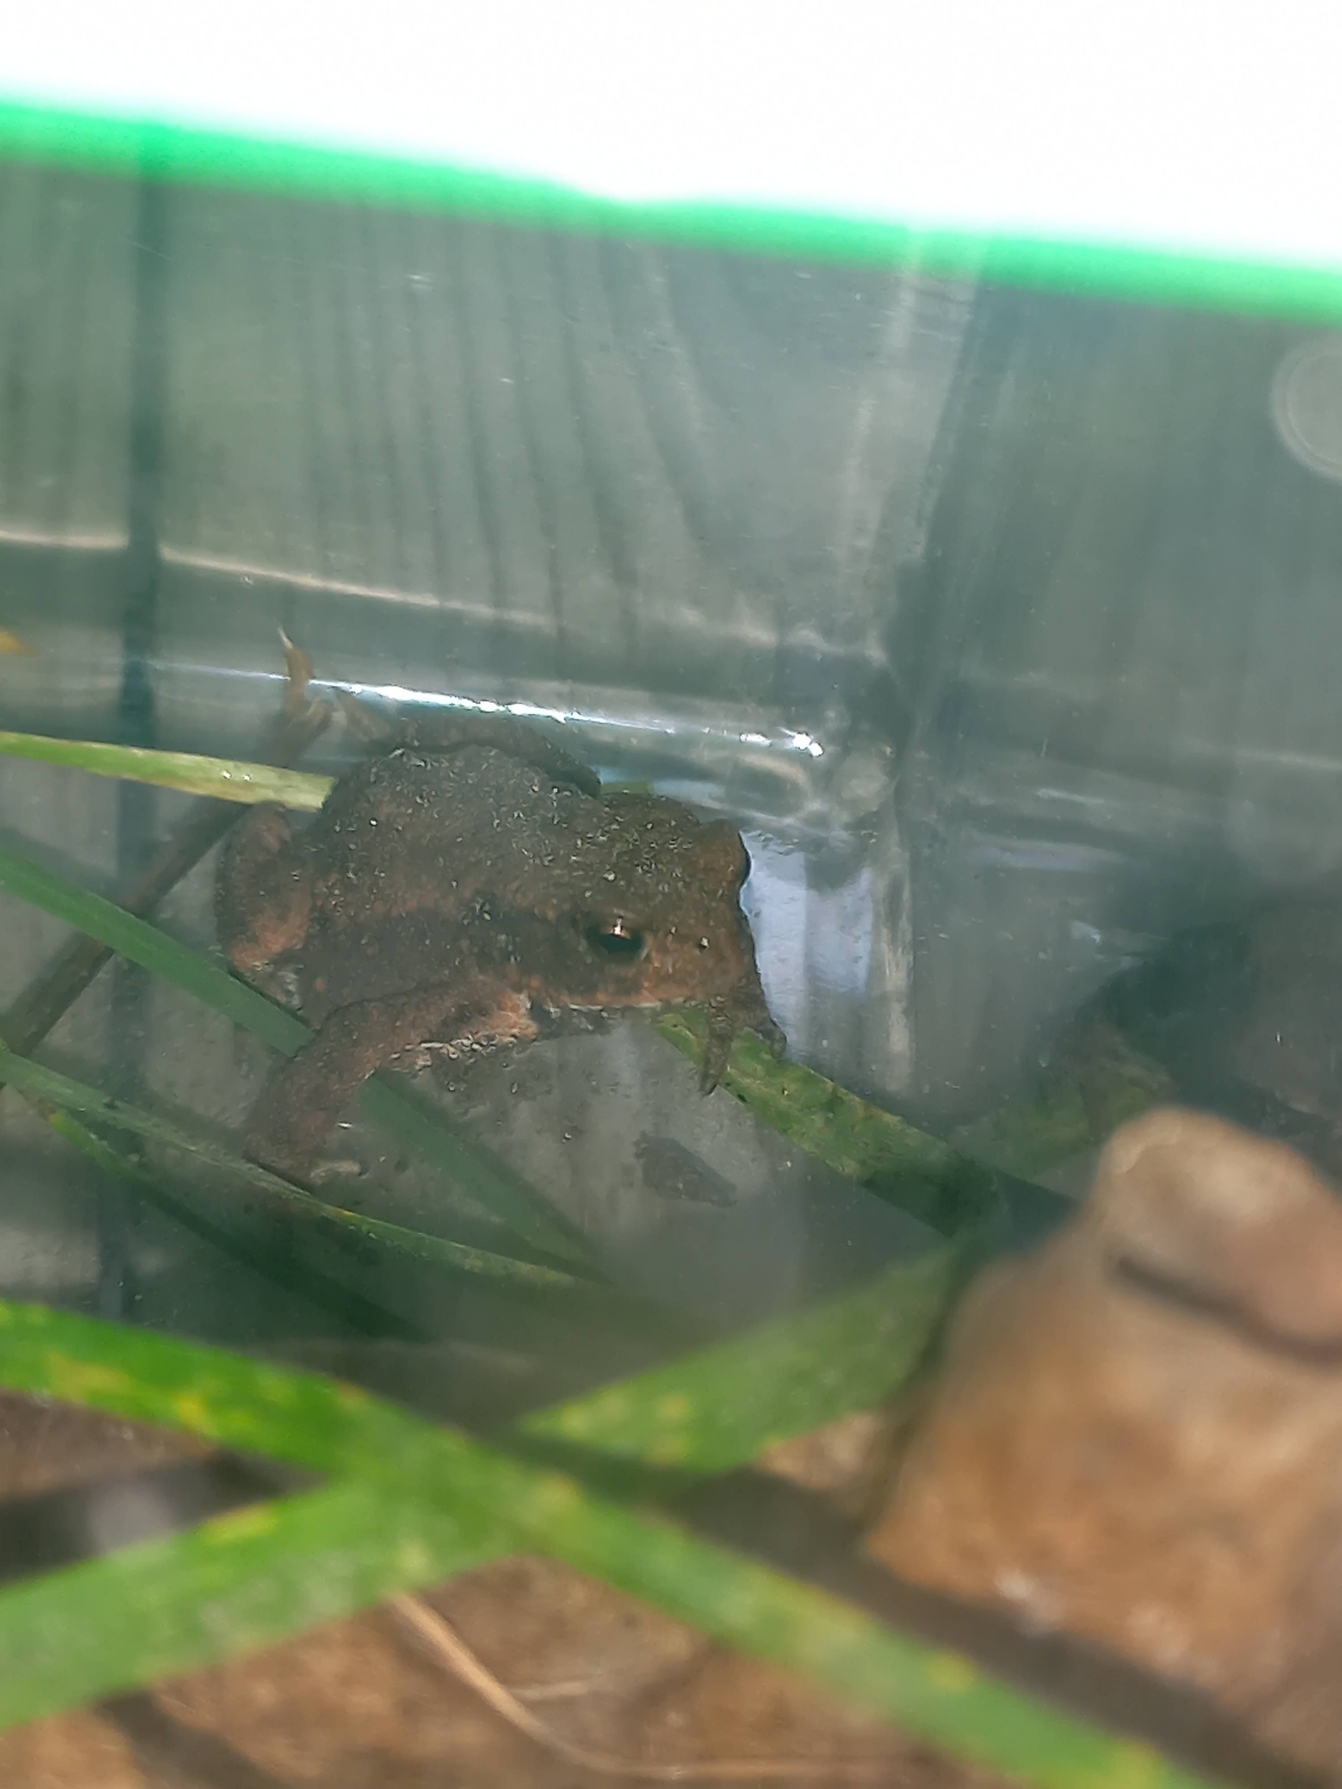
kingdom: Animalia
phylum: Chordata
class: Amphibia
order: Anura
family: Bufonidae
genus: Bufo
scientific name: Bufo bufo
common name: Skrubtudse
